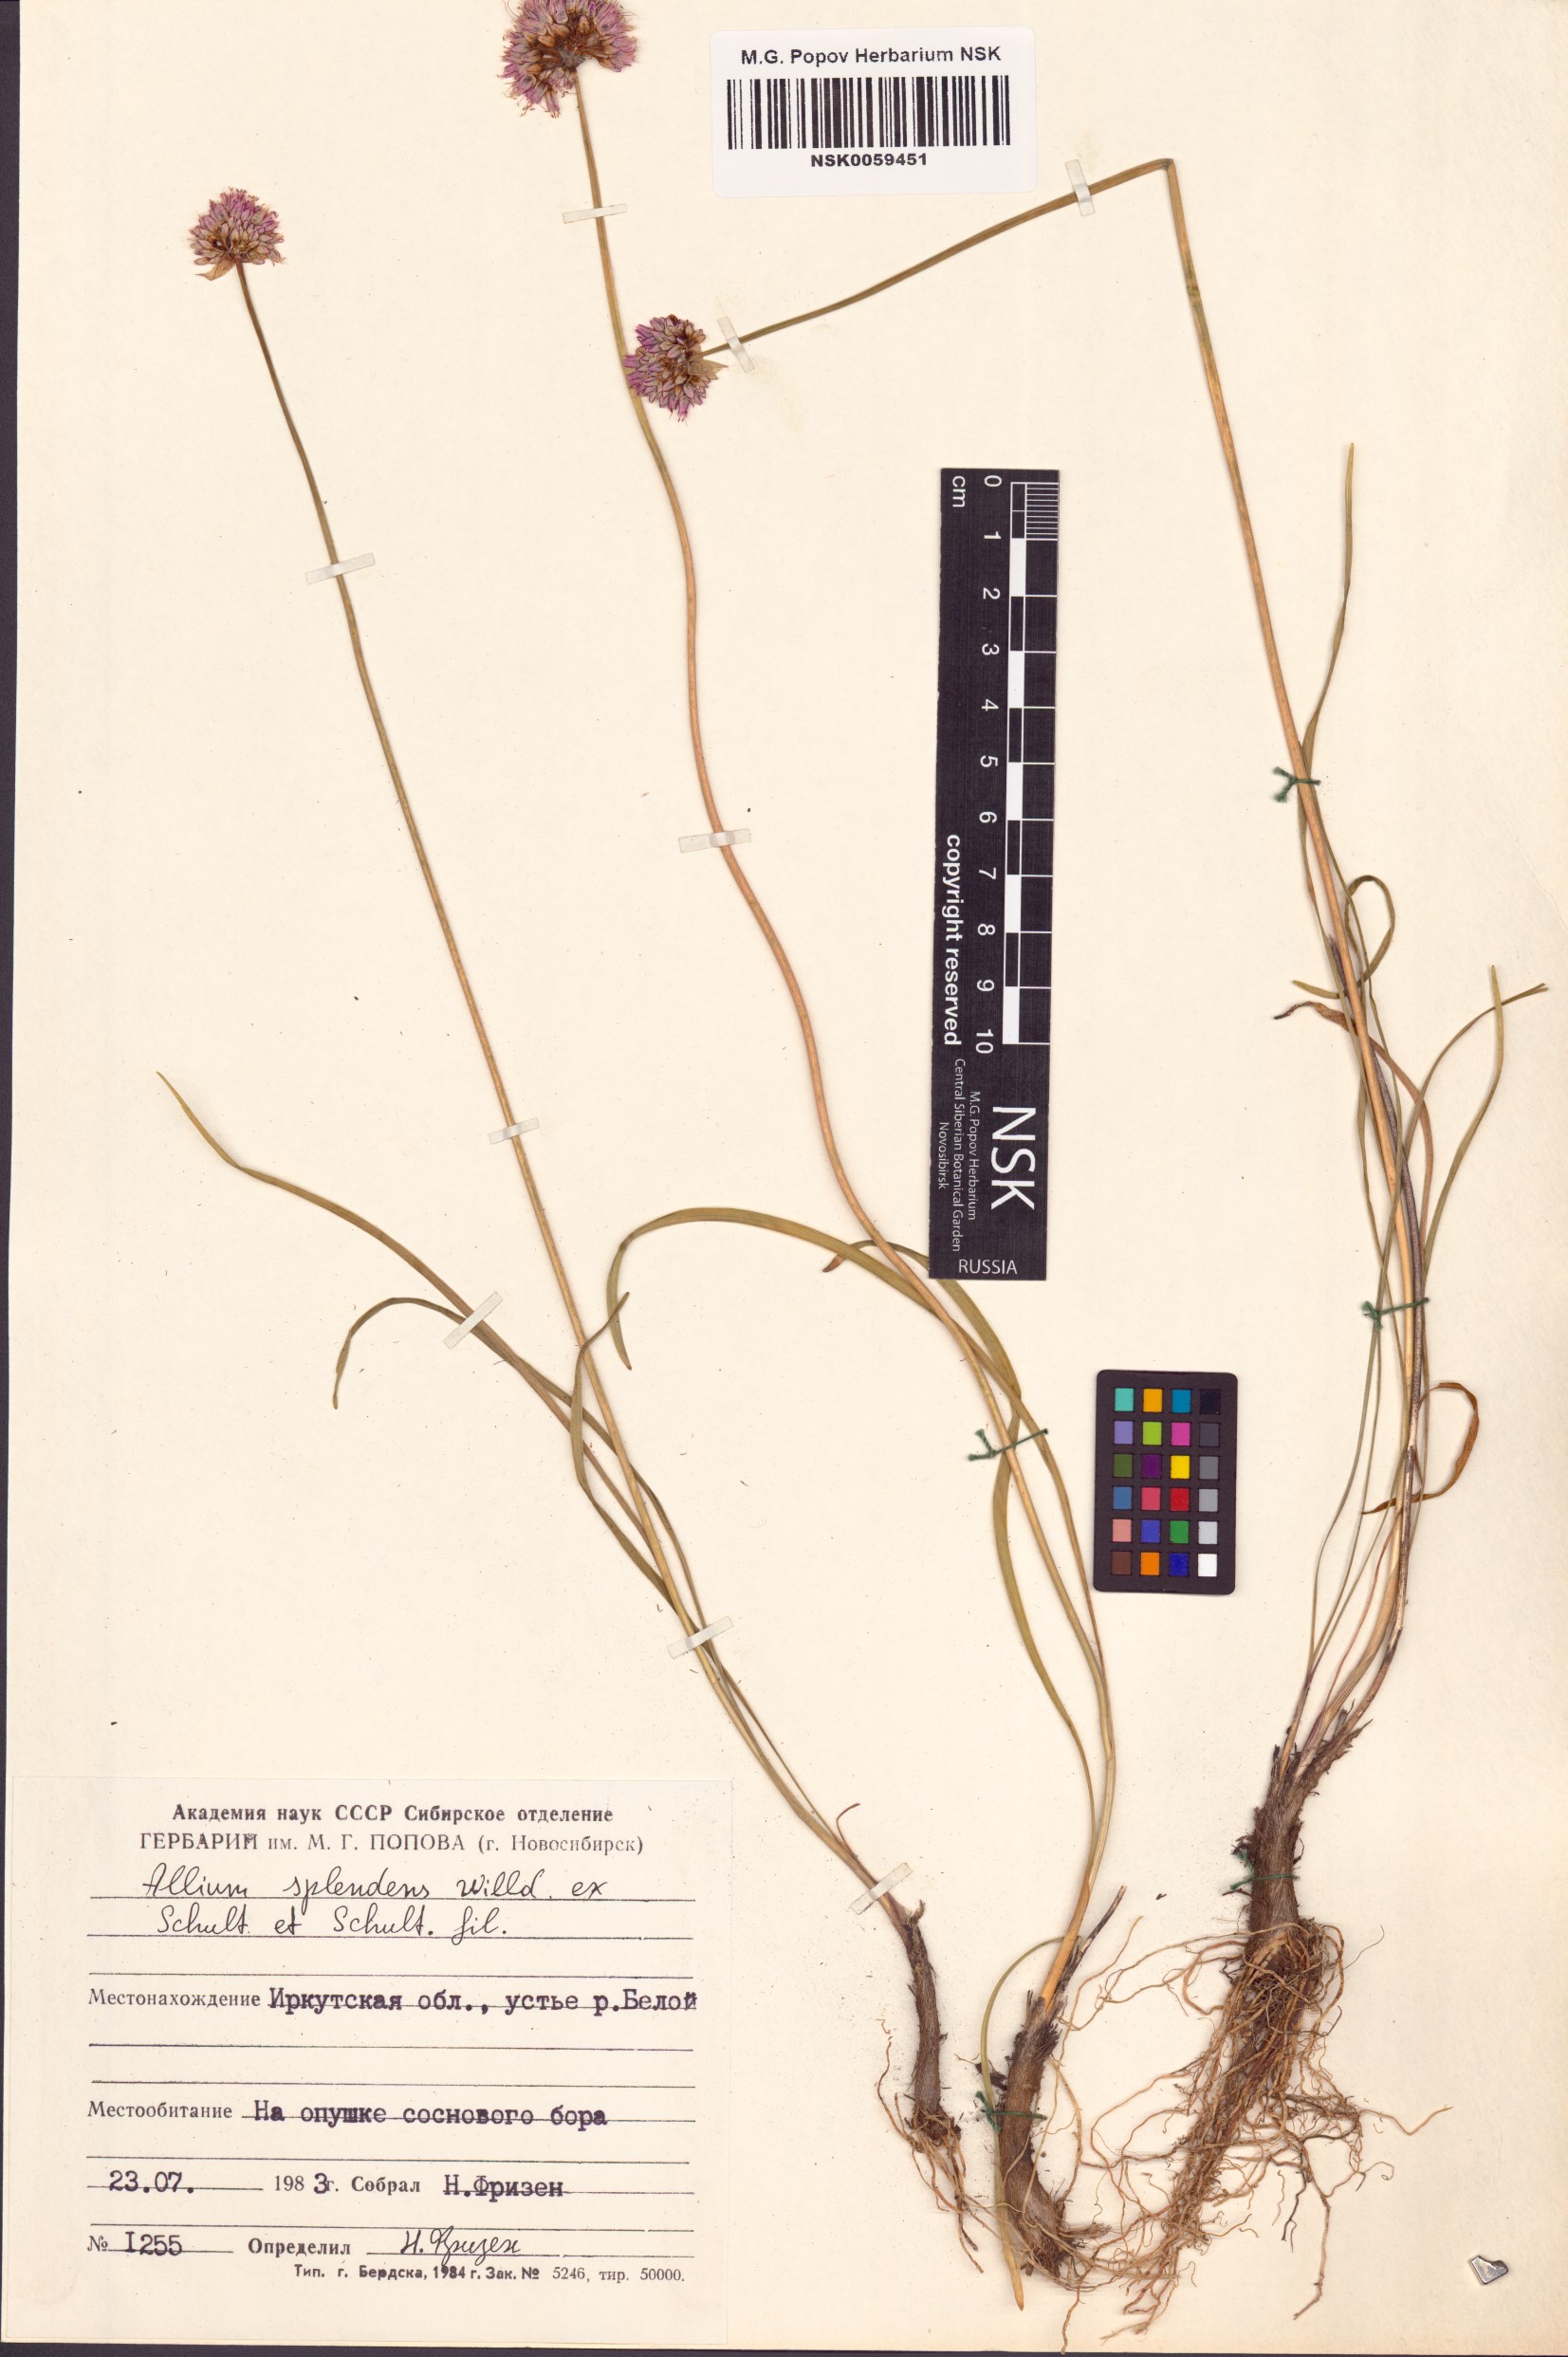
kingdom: Plantae
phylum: Tracheophyta
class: Liliopsida
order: Asparagales
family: Amaryllidaceae
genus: Allium
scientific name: Allium splendens
